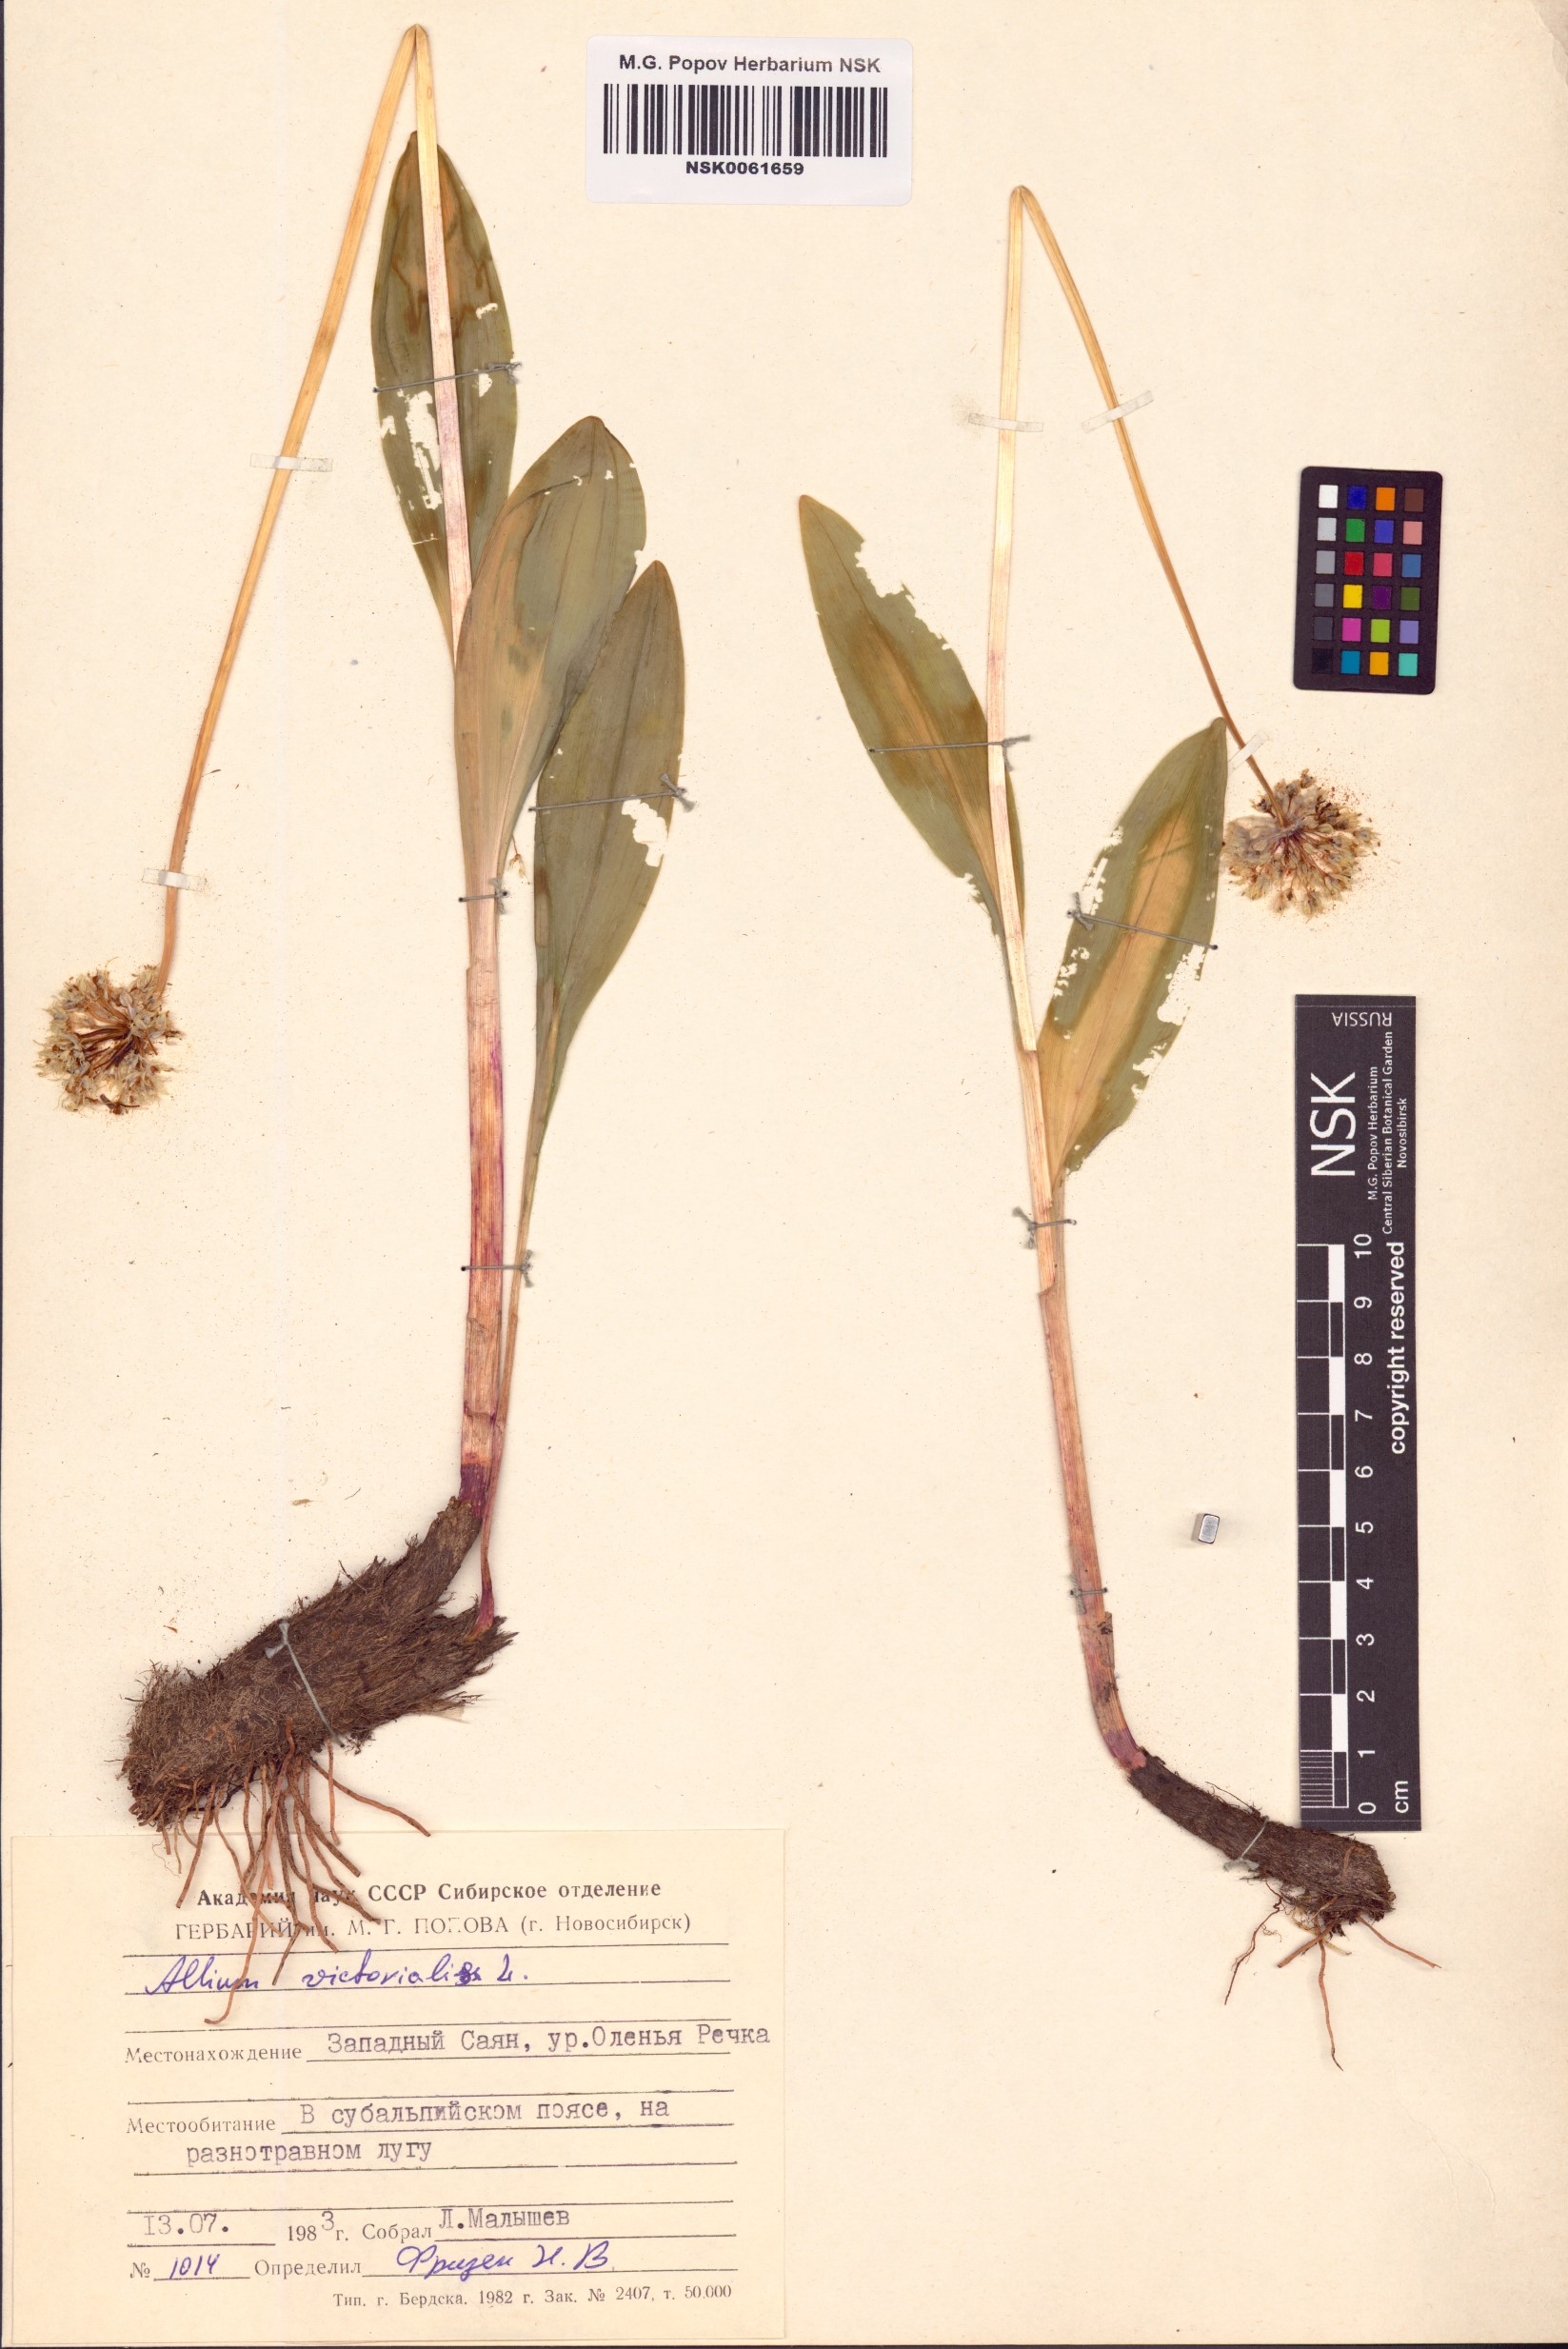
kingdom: Plantae
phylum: Tracheophyta
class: Liliopsida
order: Asparagales
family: Amaryllidaceae
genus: Allium
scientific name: Allium victorialis
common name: Alpine leek
